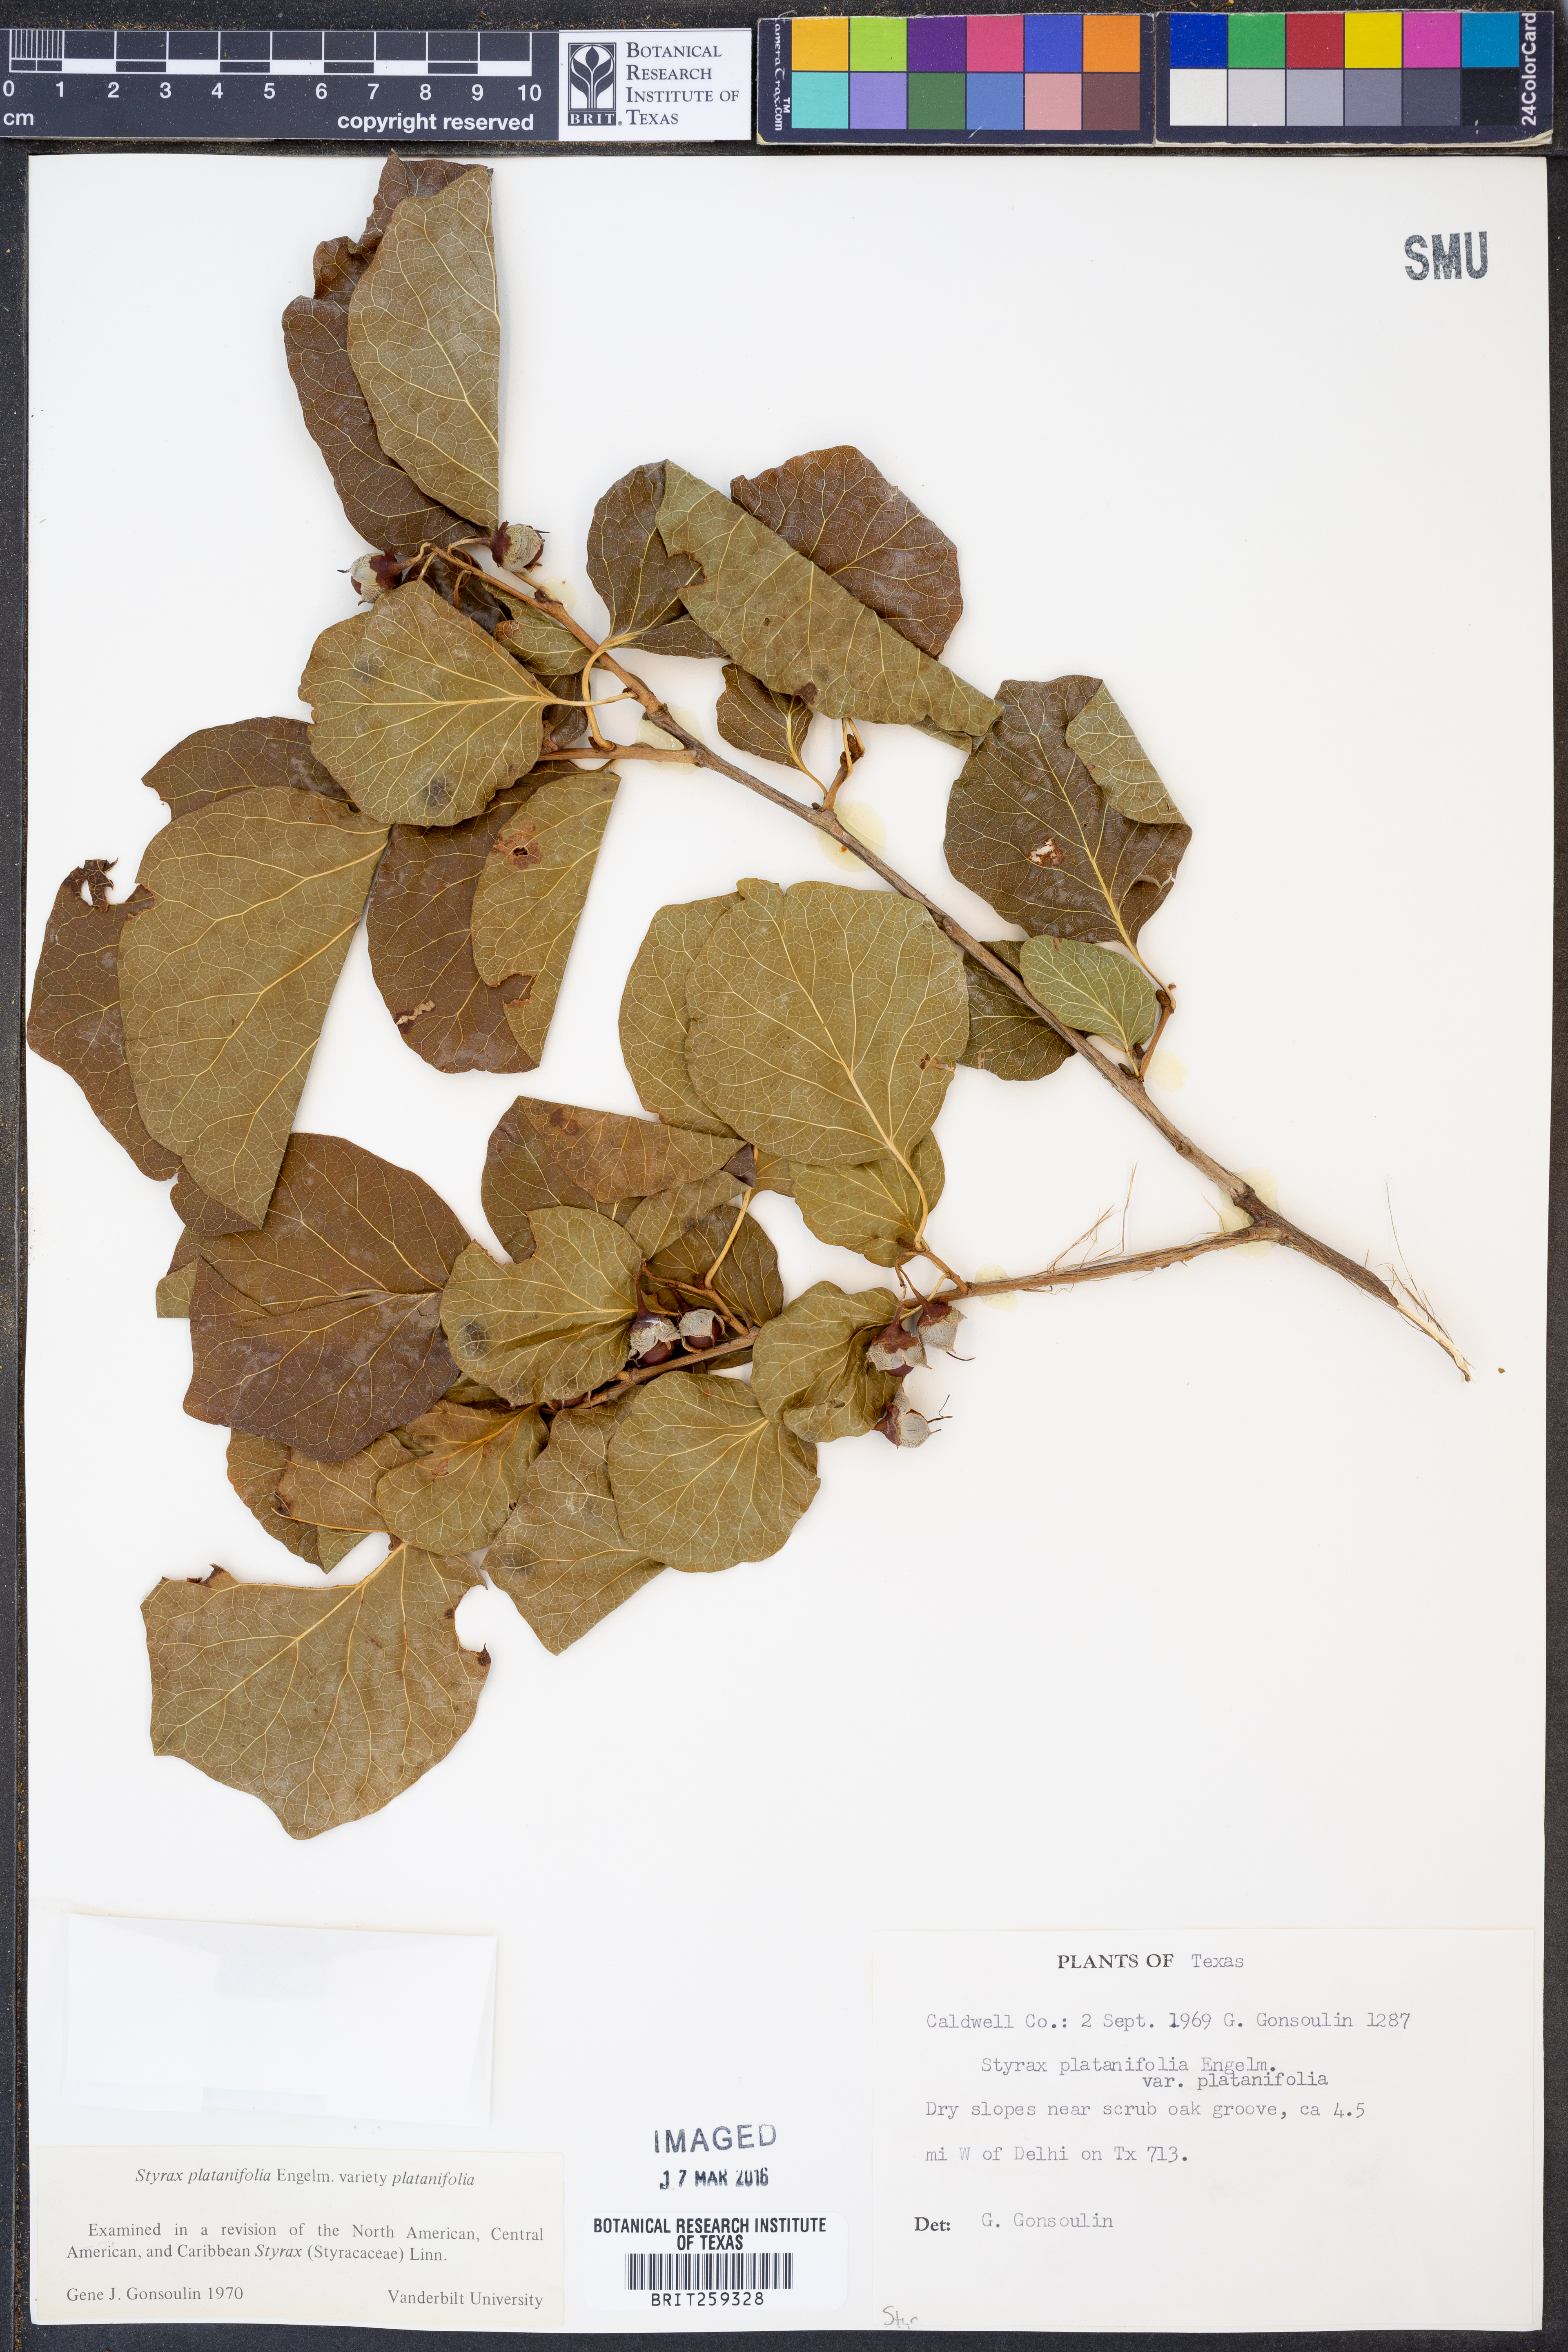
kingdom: Plantae
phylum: Tracheophyta
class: Magnoliopsida
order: Ericales
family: Styracaceae
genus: Styrax
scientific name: Styrax platanifolius
